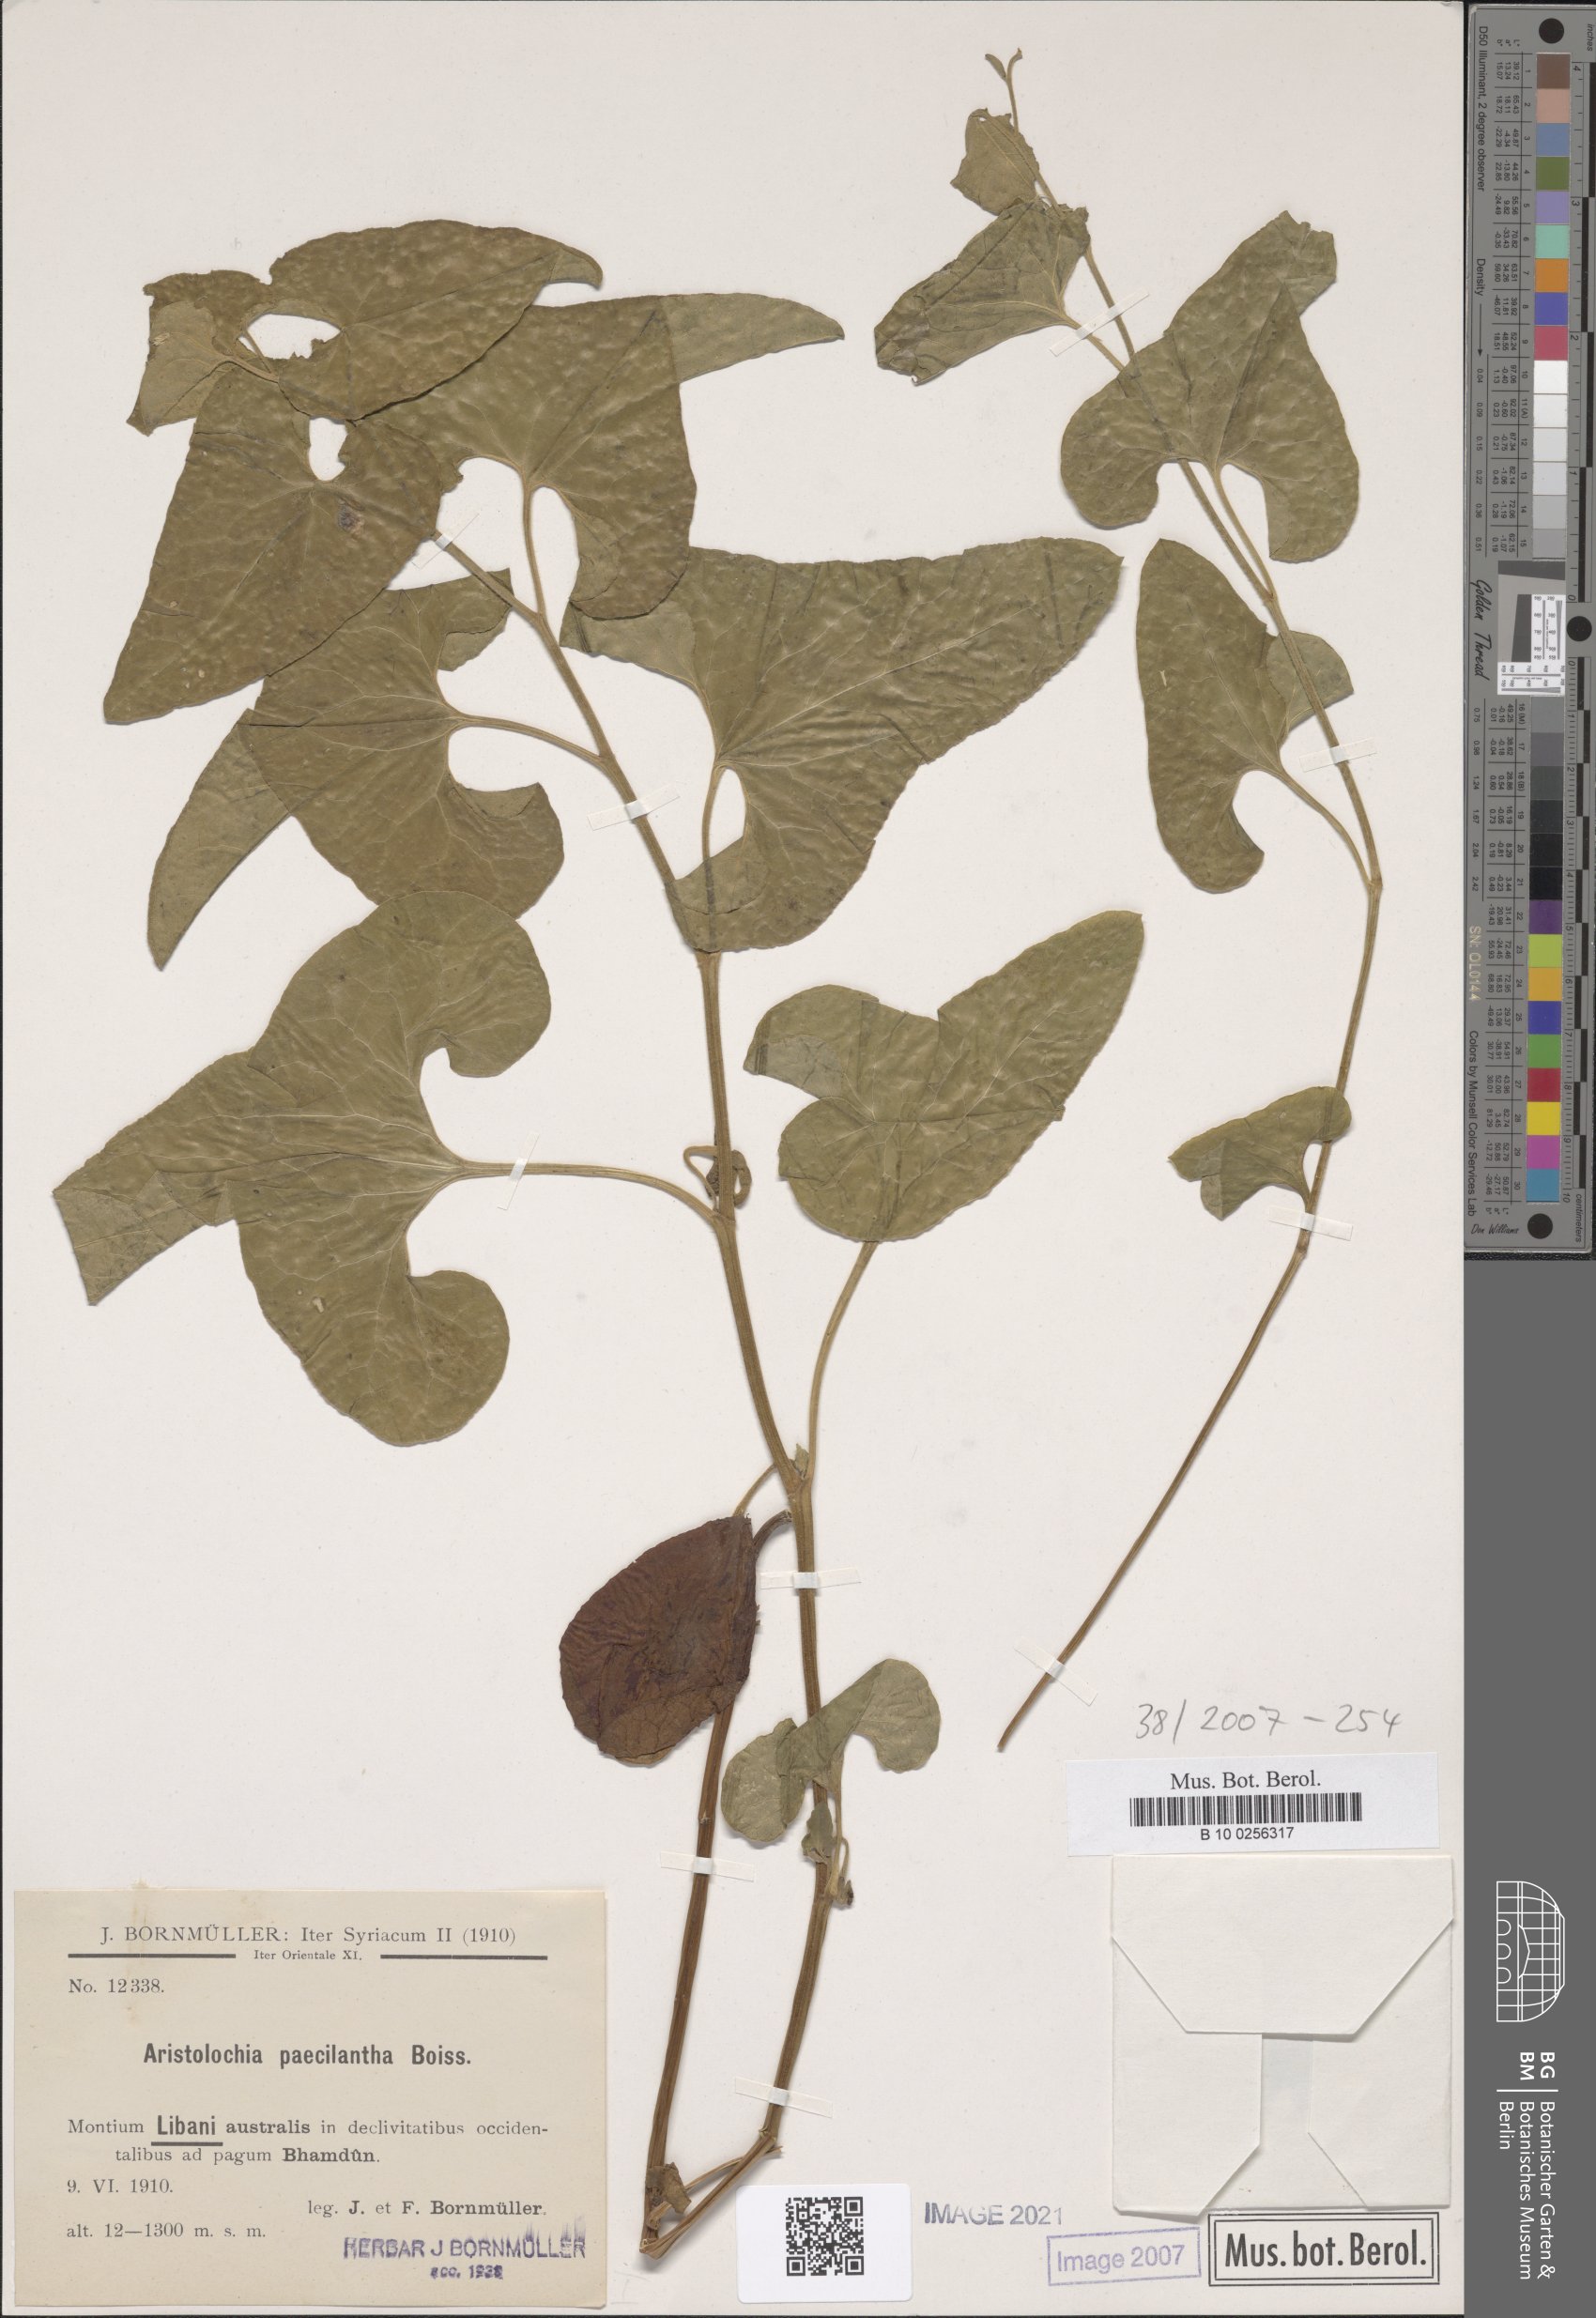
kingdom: Plantae
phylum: Tracheophyta
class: Magnoliopsida
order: Piperales
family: Aristolochiaceae
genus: Aristolochia
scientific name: Aristolochia paecilantha
